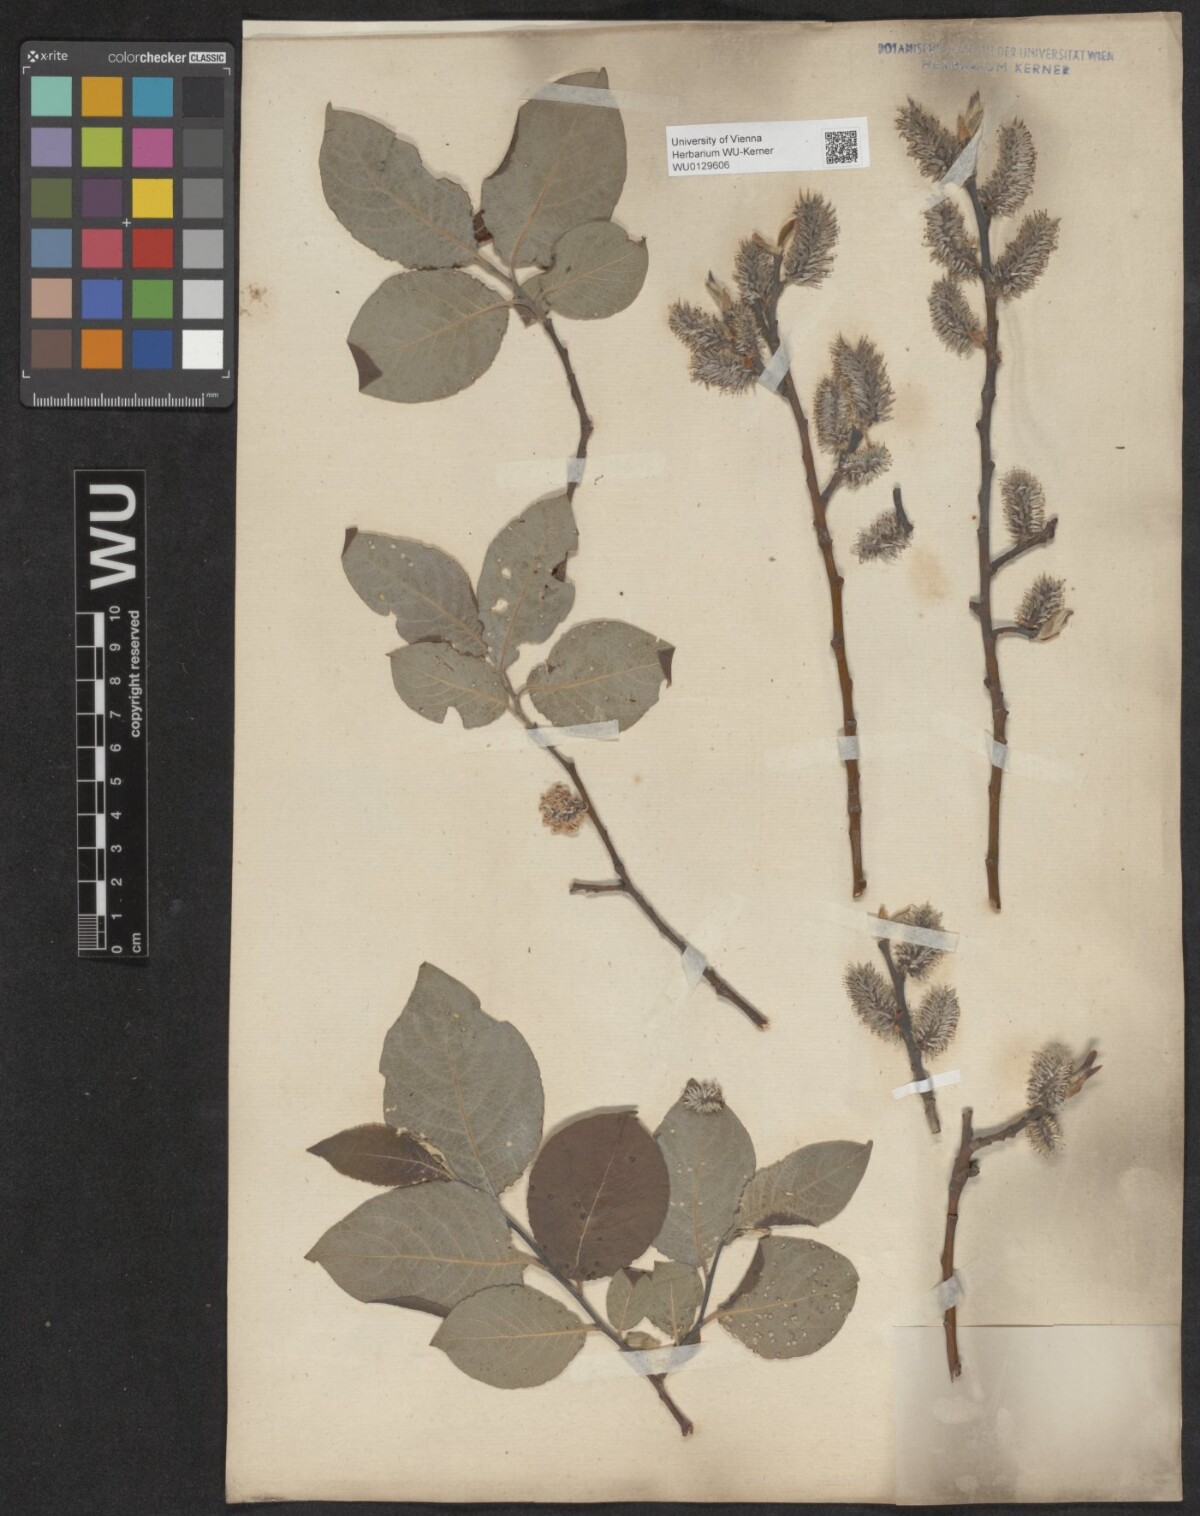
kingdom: Plantae
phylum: Tracheophyta
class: Magnoliopsida
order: Malpighiales
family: Salicaceae
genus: Salix
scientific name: Salix caprea
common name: Goat willow
